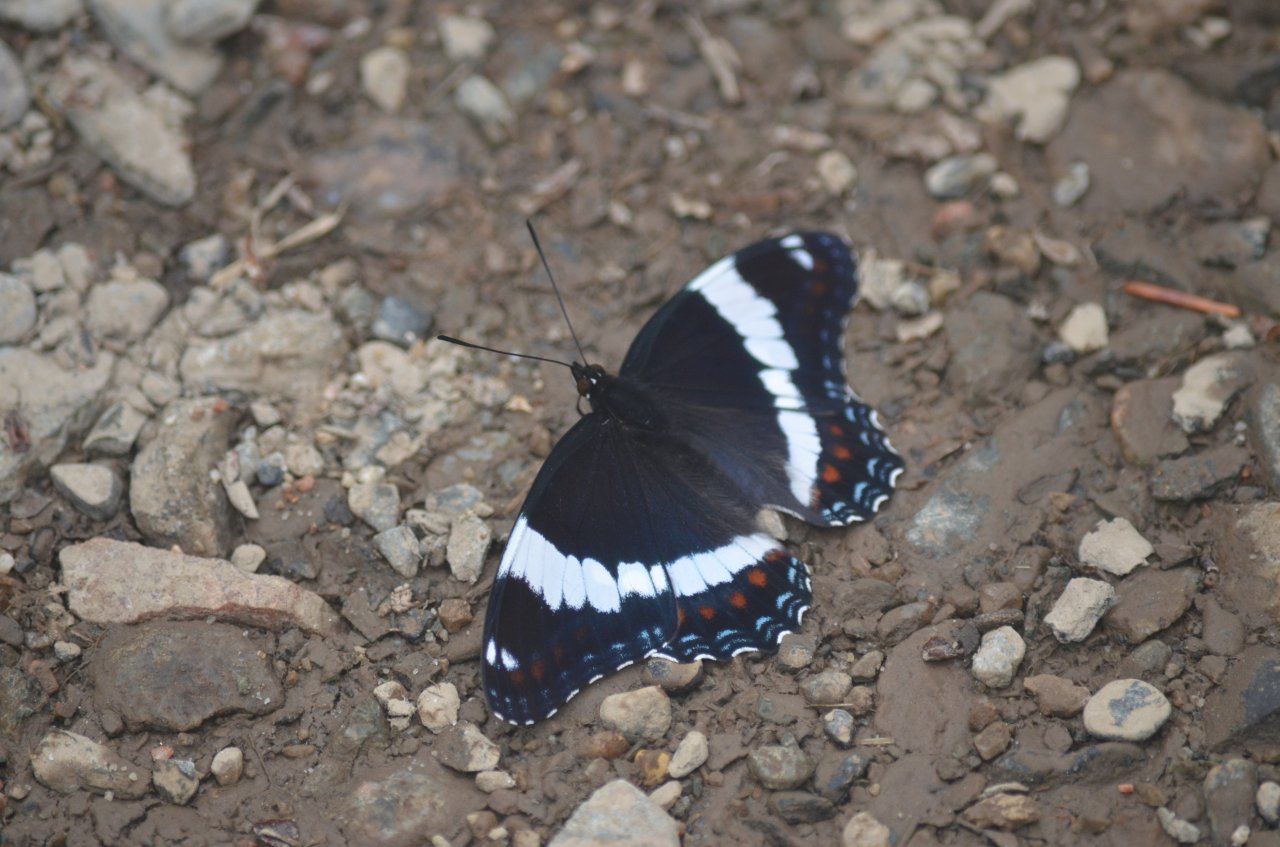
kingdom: Animalia
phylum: Arthropoda
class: Insecta
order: Lepidoptera
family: Nymphalidae
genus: Limenitis
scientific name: Limenitis arthemis
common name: Red-spotted Admiral
